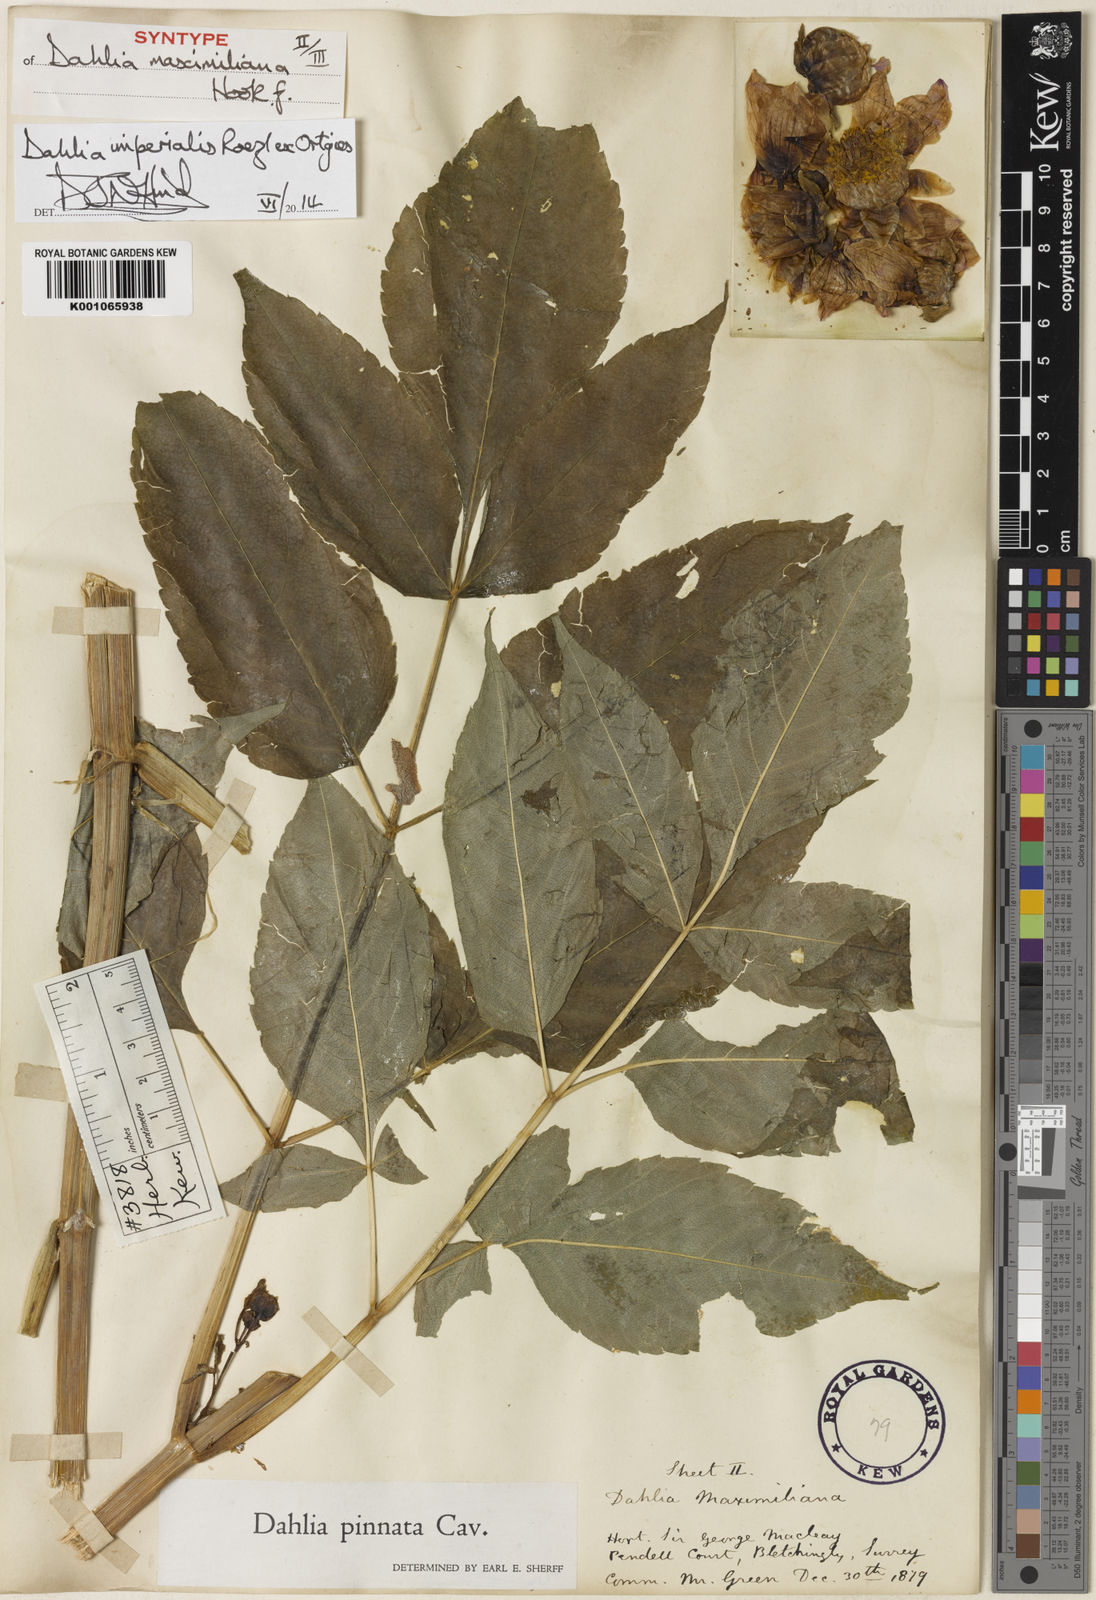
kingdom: Plantae
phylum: Tracheophyta
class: Magnoliopsida
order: Asterales
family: Asteraceae
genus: Dahlia
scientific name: Dahlia pinnata
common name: Dahlia
